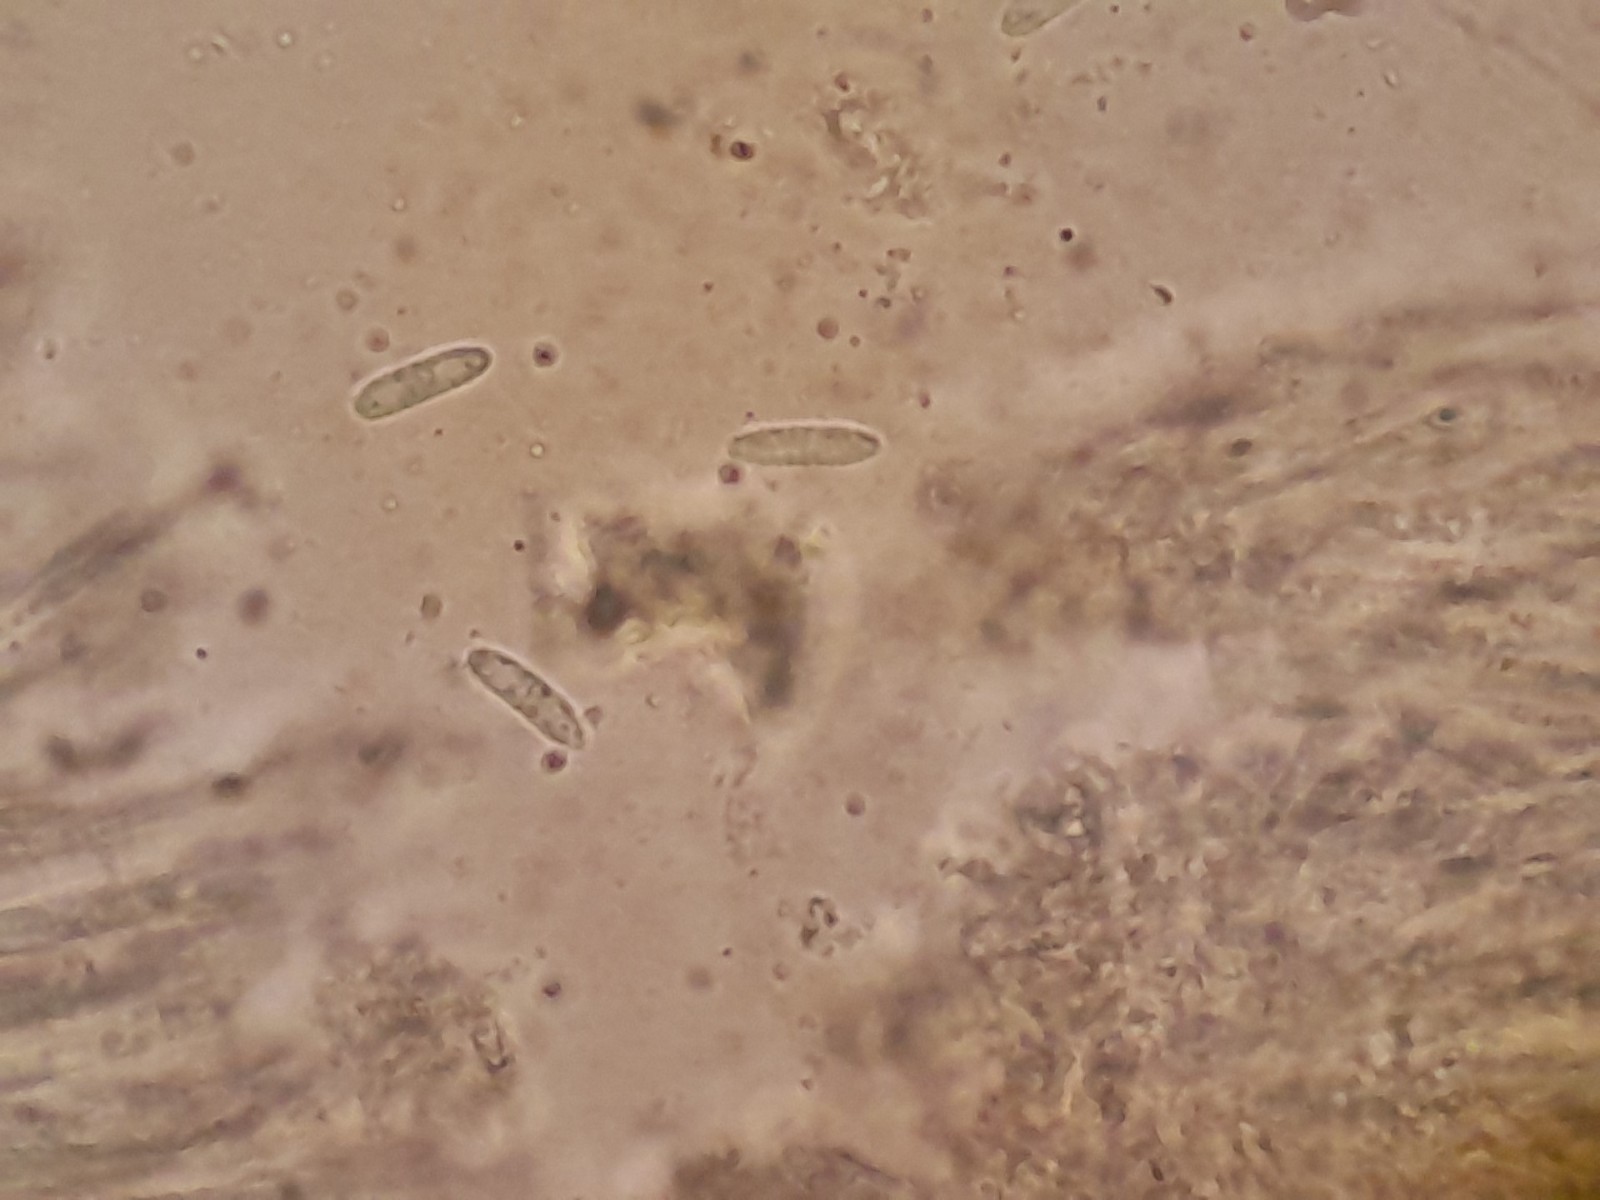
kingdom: Fungi
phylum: Ascomycota
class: Lecanoromycetes
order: Ostropales
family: Stictidaceae
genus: Cryptodiscus
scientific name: Cryptodiscus foveolaris
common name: ellipse-barkhul
